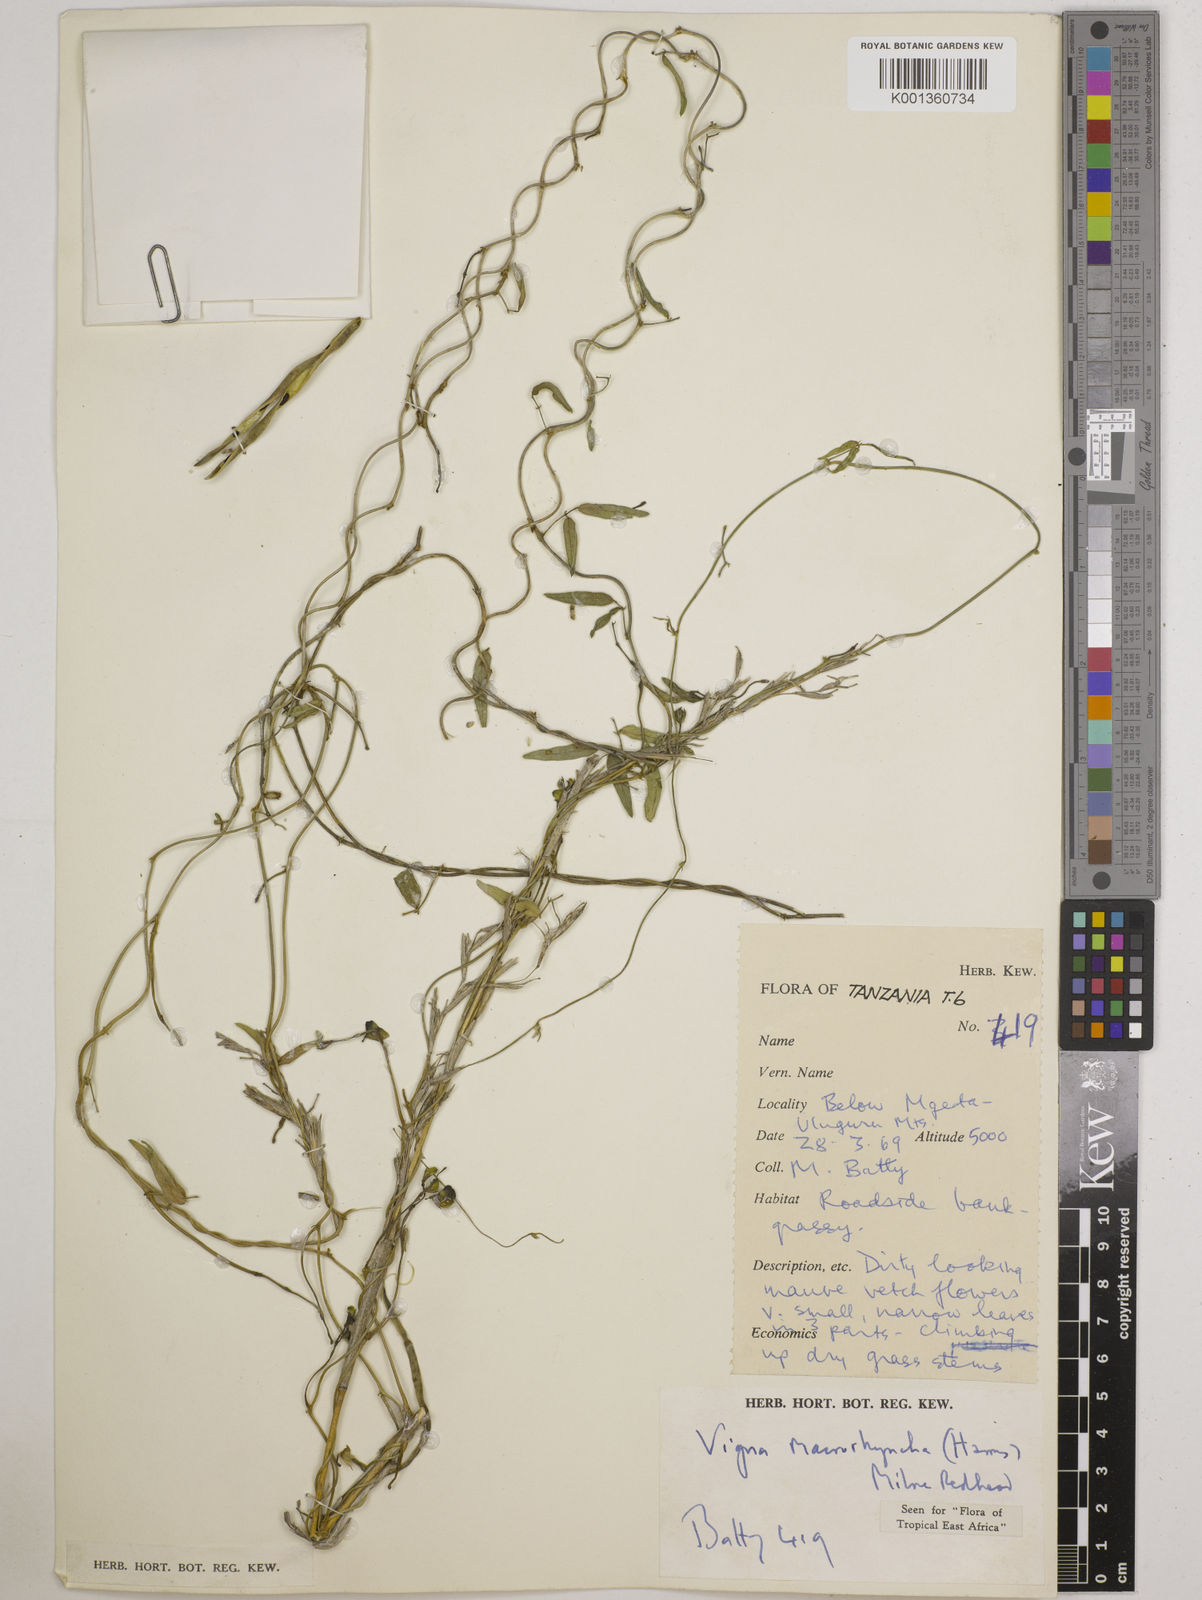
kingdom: Plantae
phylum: Tracheophyta
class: Magnoliopsida
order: Fabales
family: Fabaceae
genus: Wajira
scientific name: Wajira grahamiana
